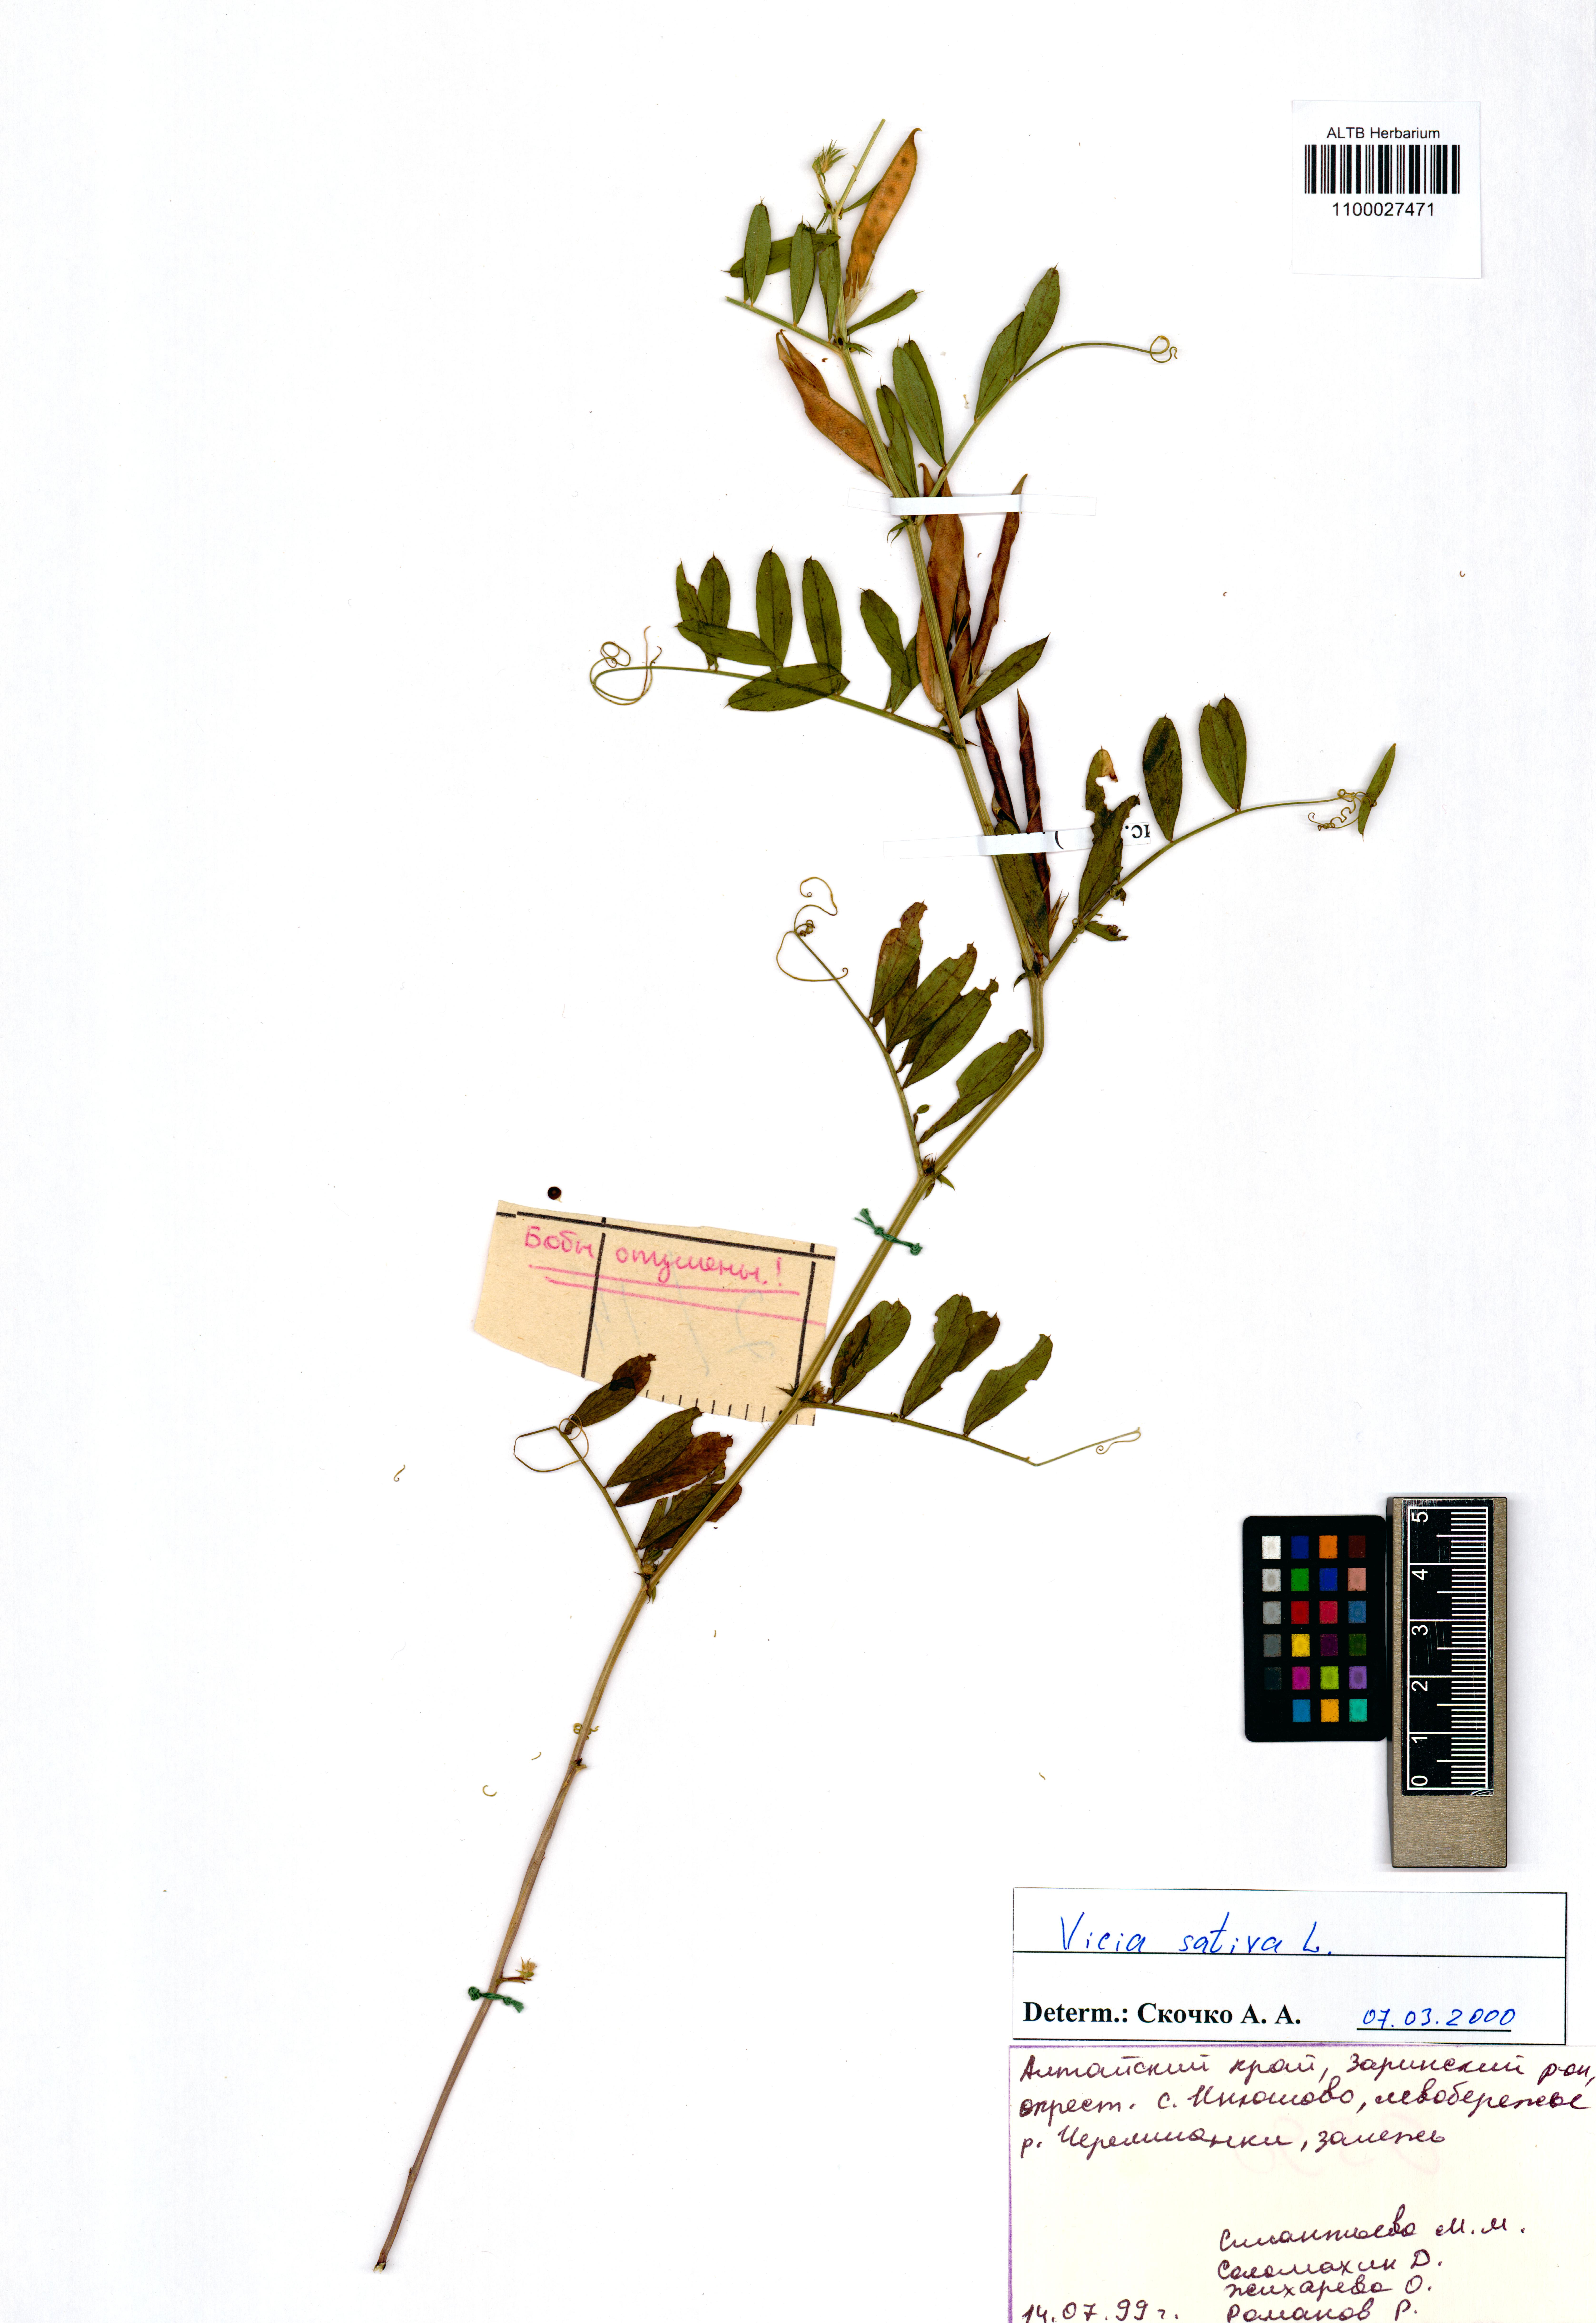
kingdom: Plantae
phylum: Tracheophyta
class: Magnoliopsida
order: Fabales
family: Fabaceae
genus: Vicia
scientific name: Vicia sativa
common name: Garden vetch
